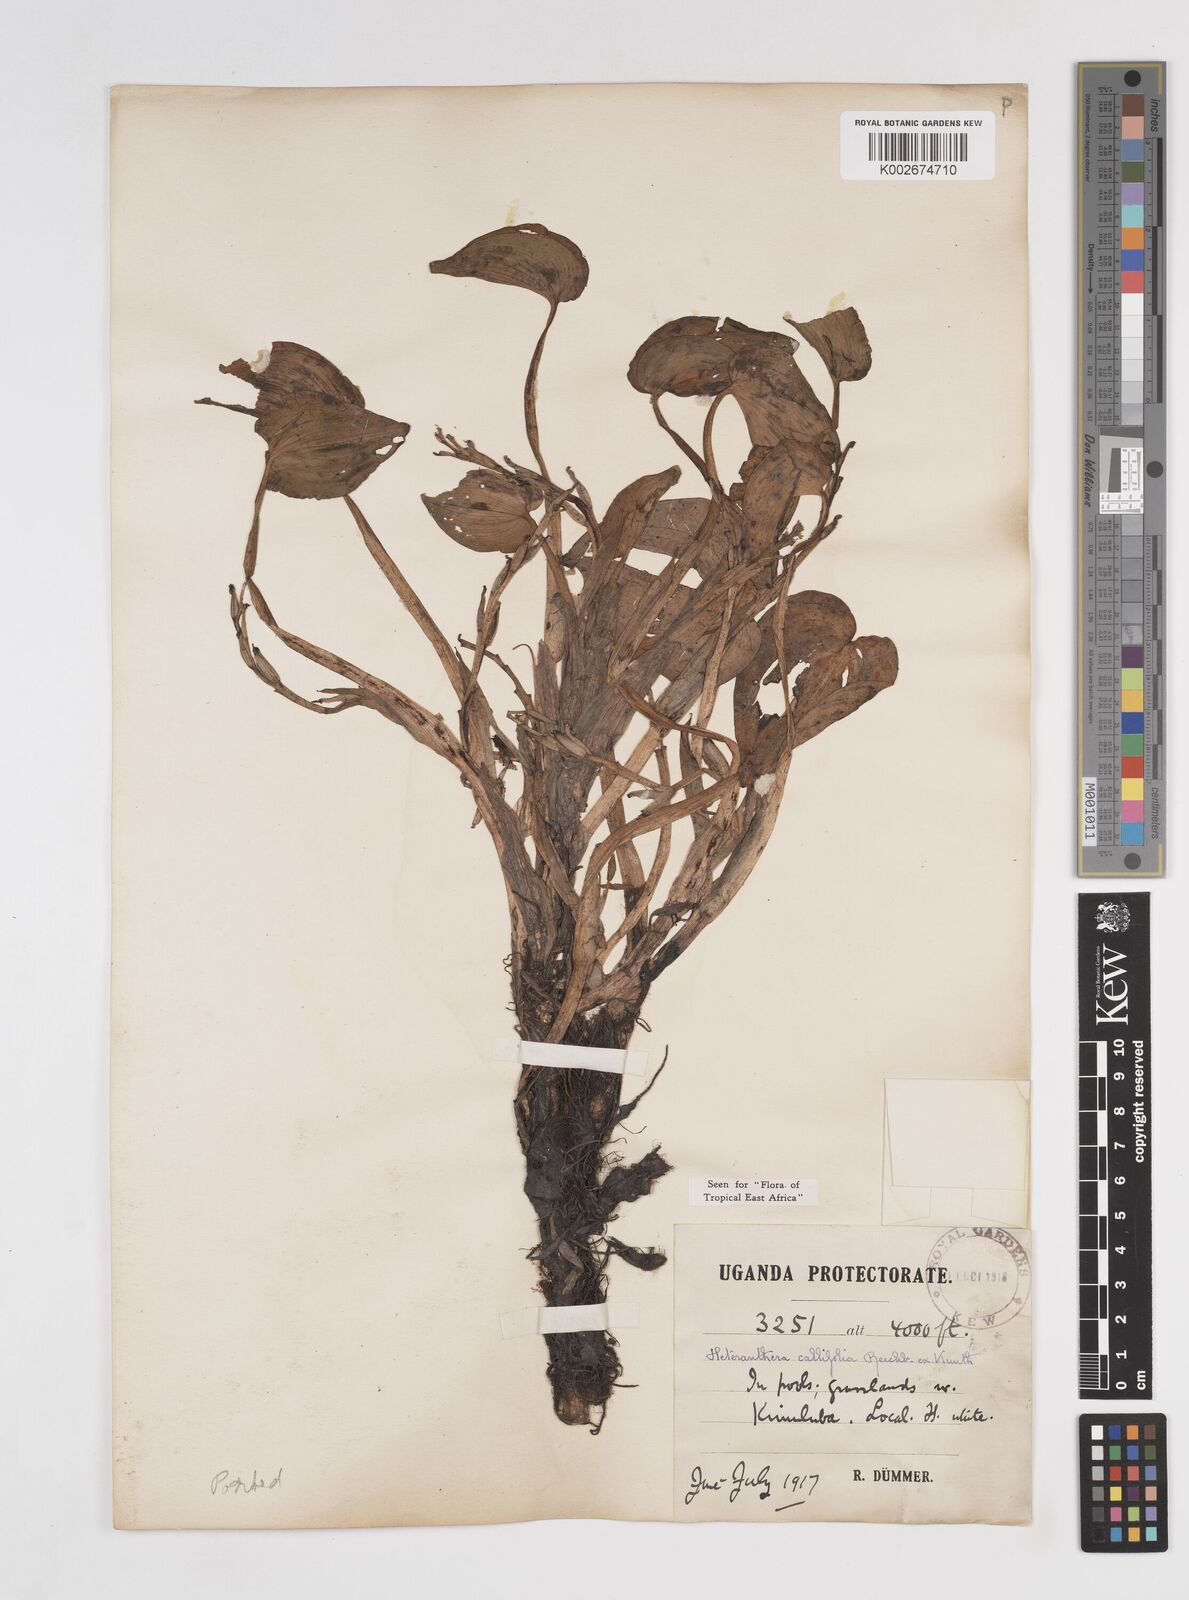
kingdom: Plantae
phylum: Tracheophyta
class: Liliopsida
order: Commelinales
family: Pontederiaceae
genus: Heteranthera
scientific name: Heteranthera callifolia
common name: Mud plantain
